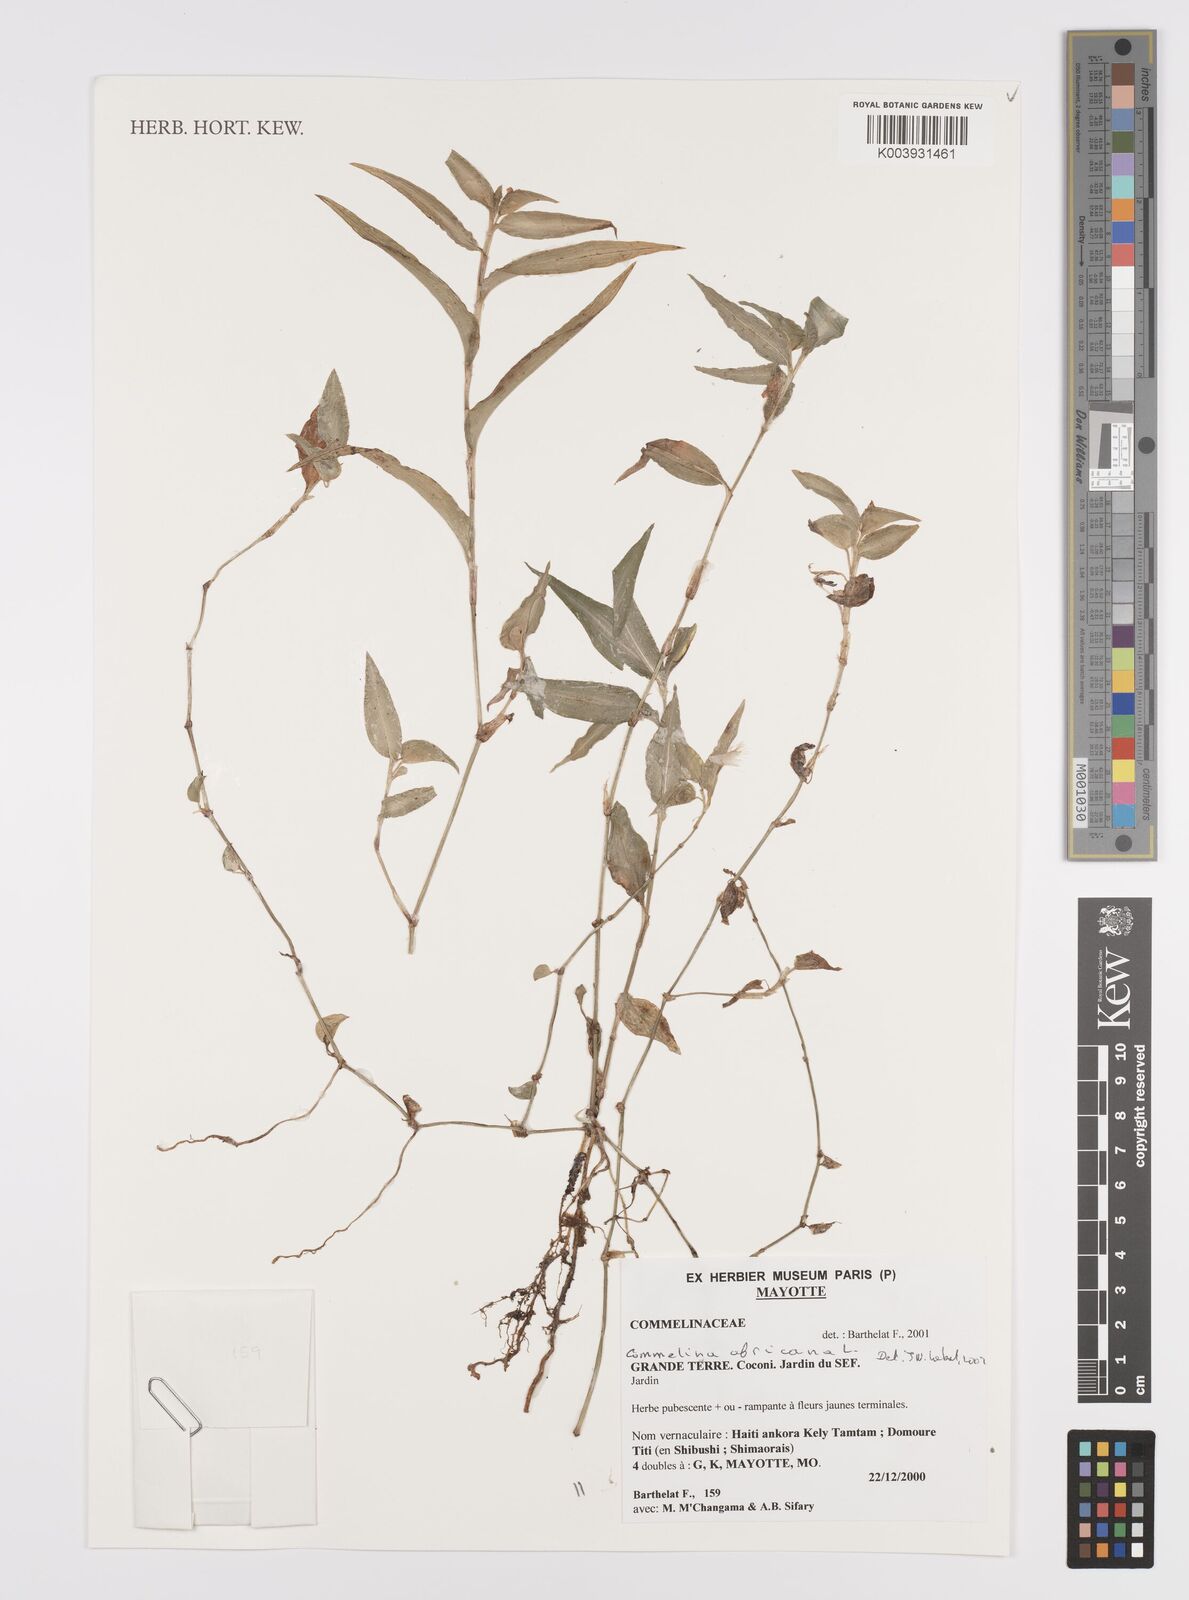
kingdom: Plantae
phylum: Tracheophyta
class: Liliopsida
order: Commelinales
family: Commelinaceae
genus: Commelina
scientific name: Commelina africana
